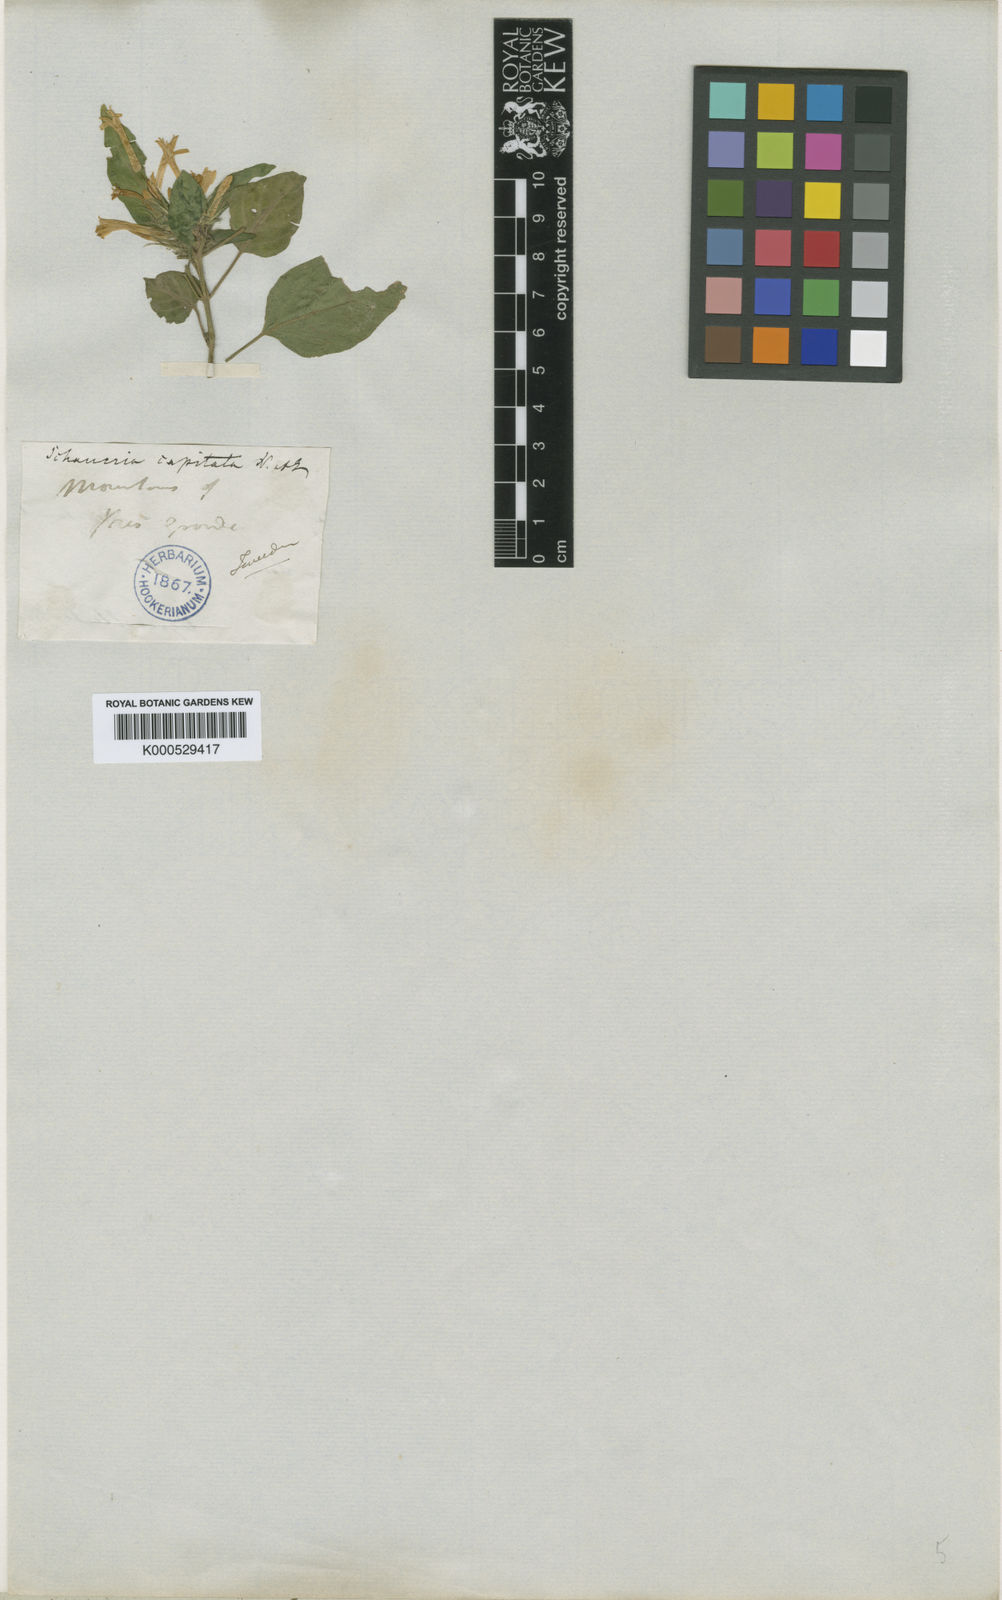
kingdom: Plantae
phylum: Tracheophyta
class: Magnoliopsida
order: Lamiales
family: Acanthaceae
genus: Schaueria
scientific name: Schaueria capitata
